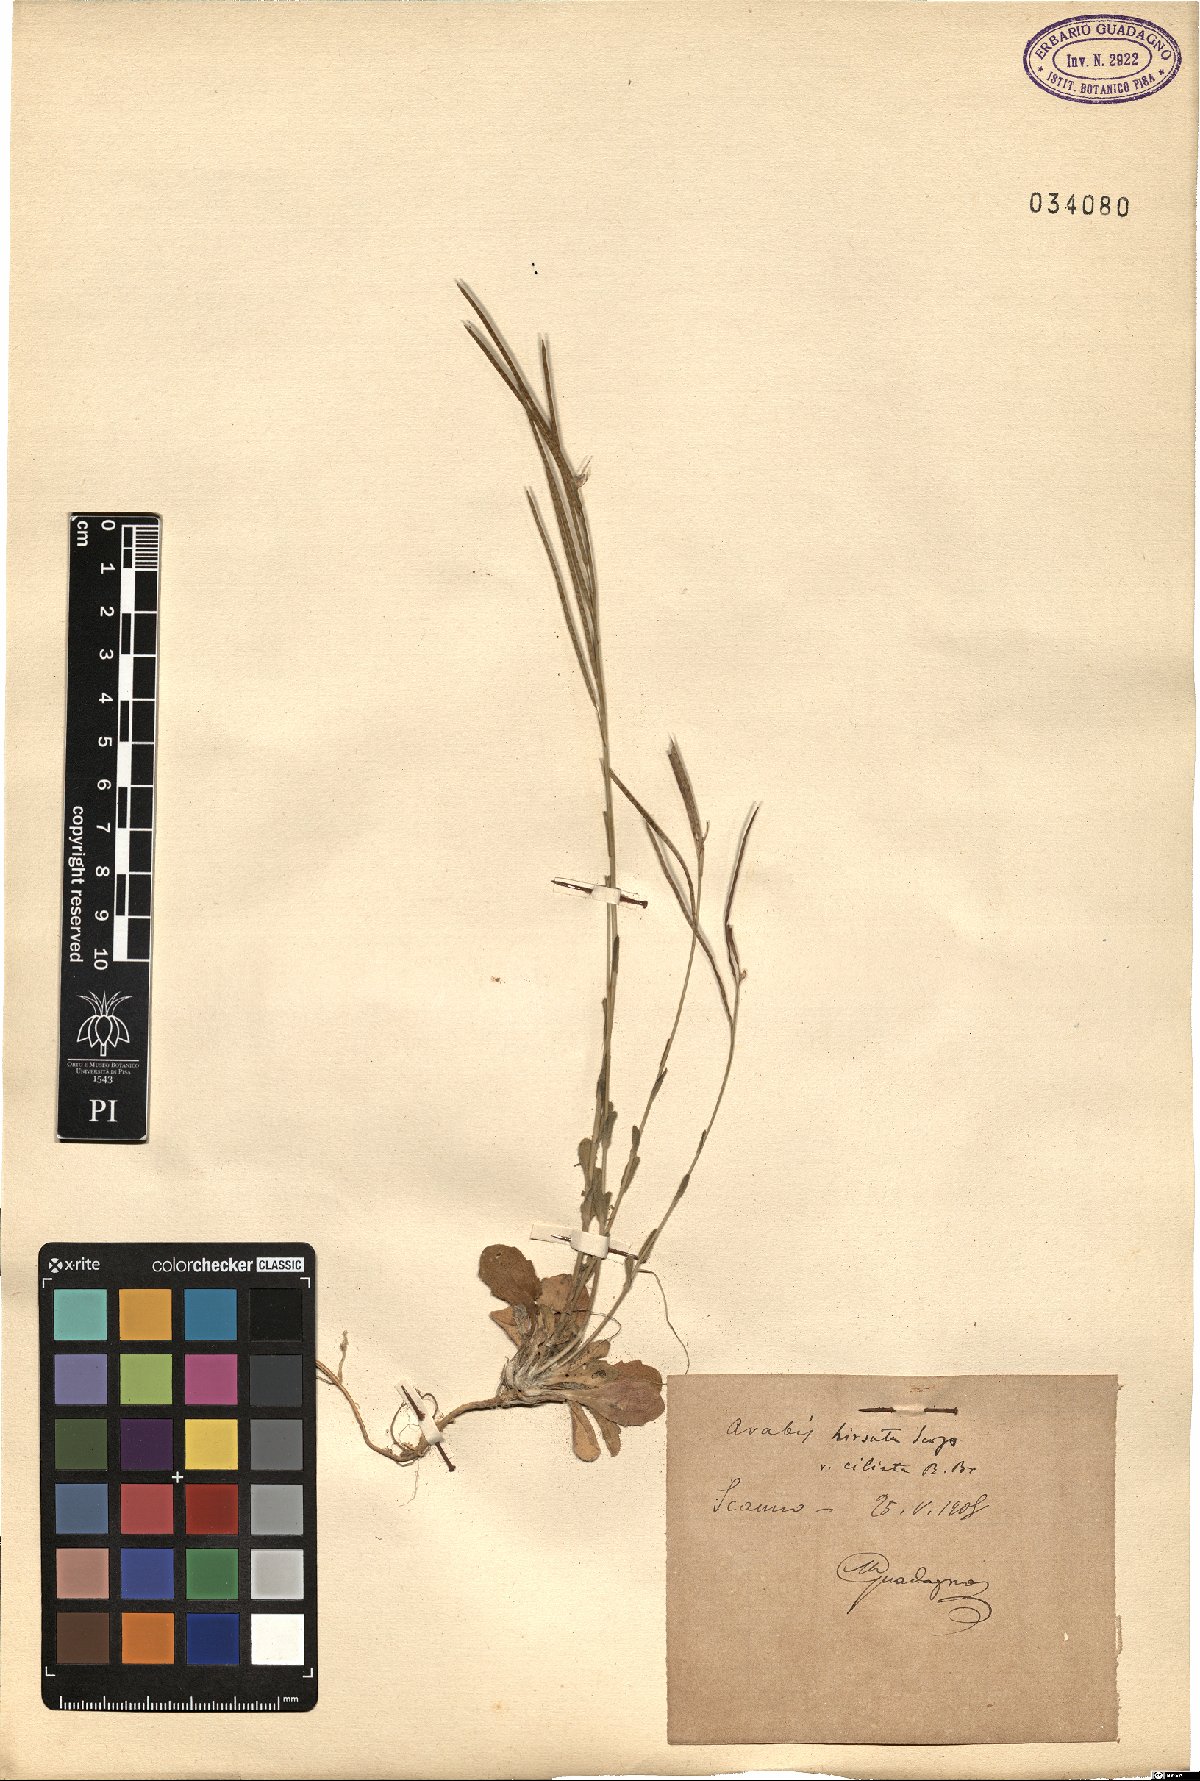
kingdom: Plantae
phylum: Tracheophyta
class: Magnoliopsida
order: Brassicales
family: Brassicaceae
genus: Arabis
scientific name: Arabis hirsuta
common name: Hairy rock-cress
